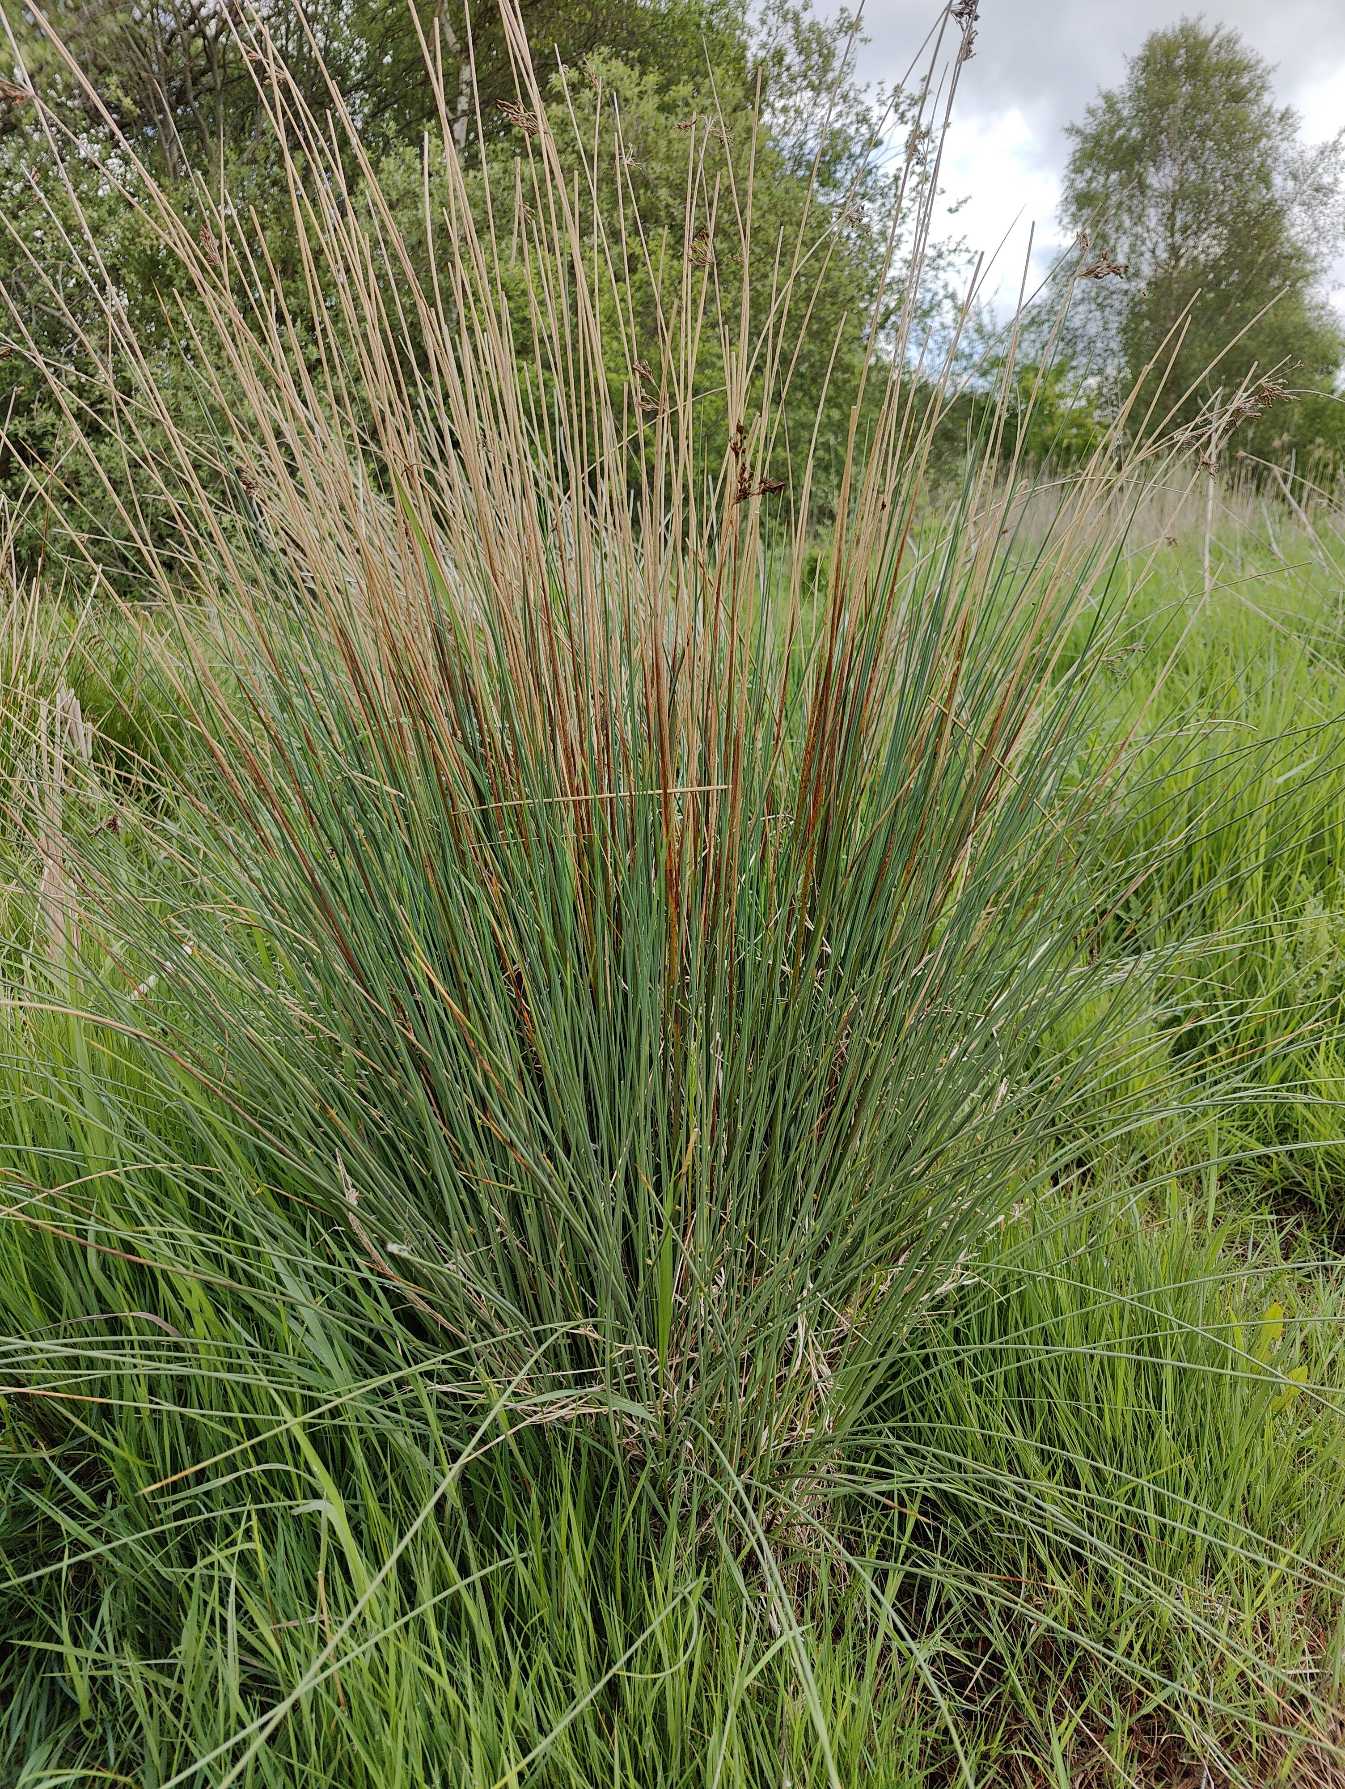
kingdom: Plantae
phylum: Tracheophyta
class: Liliopsida
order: Poales
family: Juncaceae
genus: Juncus
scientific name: Juncus inflexus
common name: Blågrå siv
